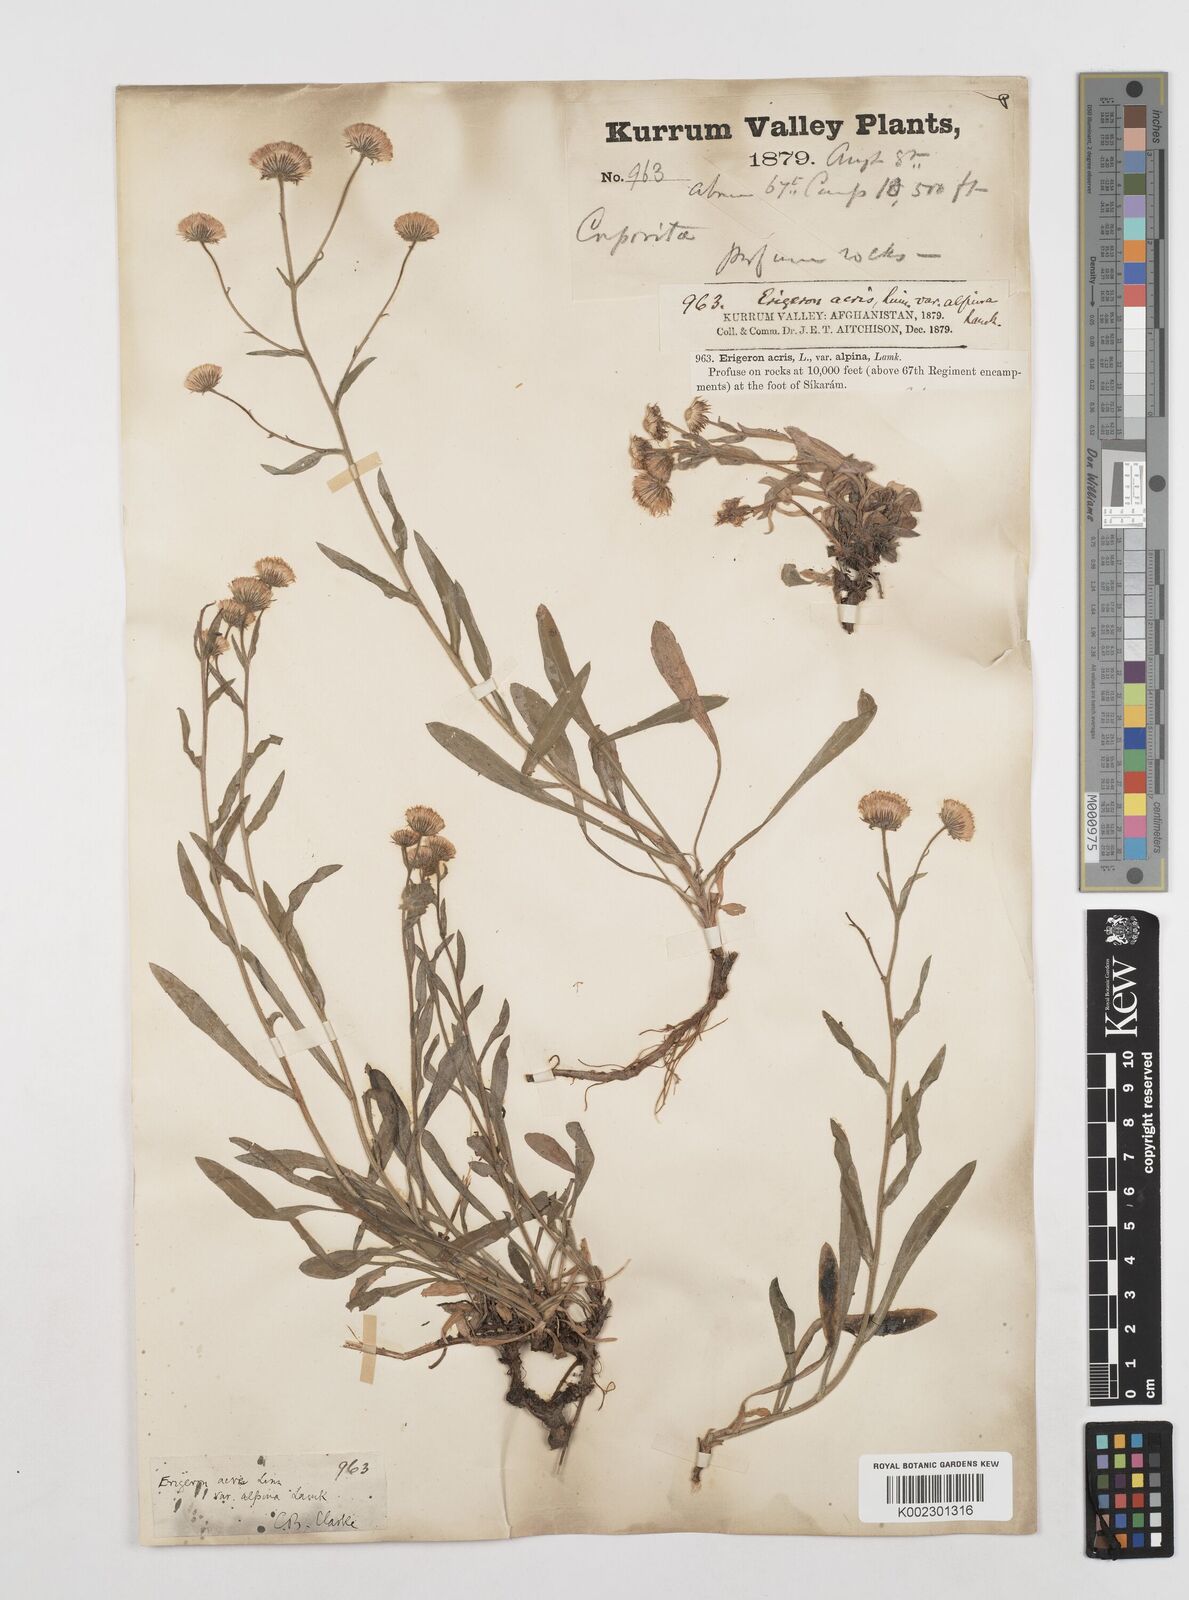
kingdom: Plantae
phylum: Tracheophyta
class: Magnoliopsida
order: Asterales
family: Asteraceae
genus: Erigeron
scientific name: Erigeron acris
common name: Blue fleabane
